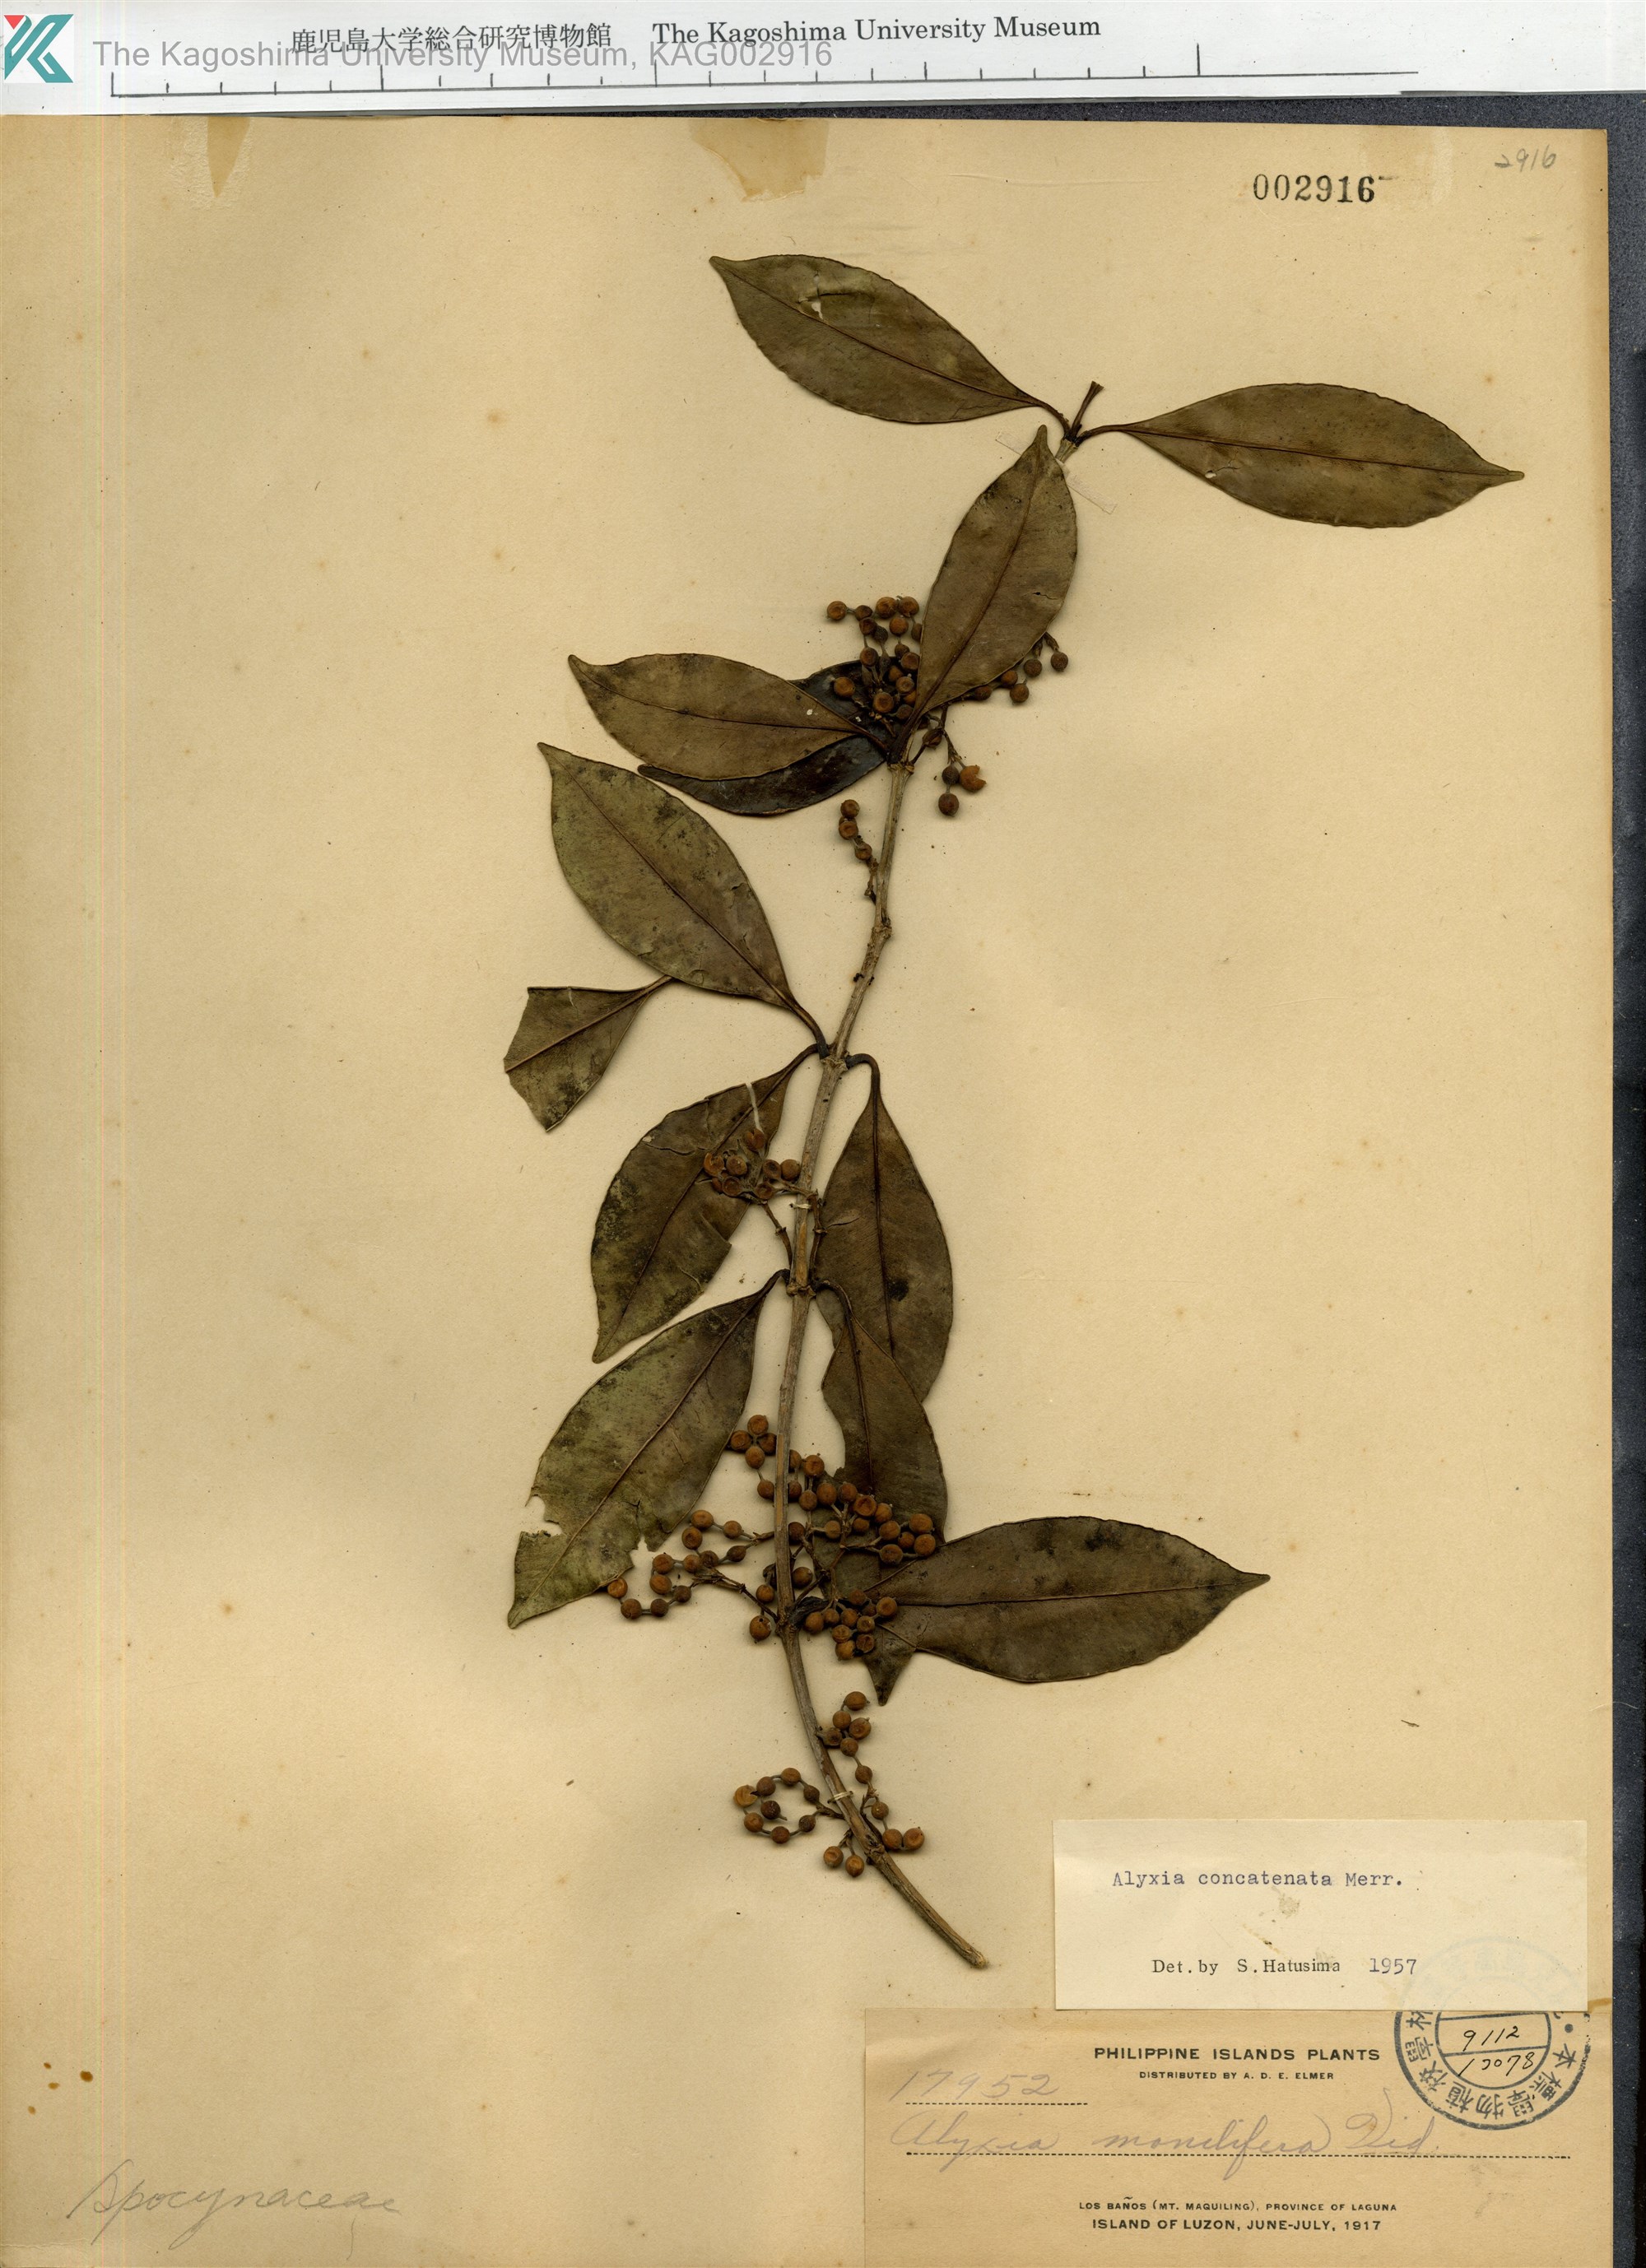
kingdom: Plantae
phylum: Tracheophyta
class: Magnoliopsida
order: Gentianales
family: Apocynaceae
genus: Alyxia
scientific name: Alyxia concatenata
